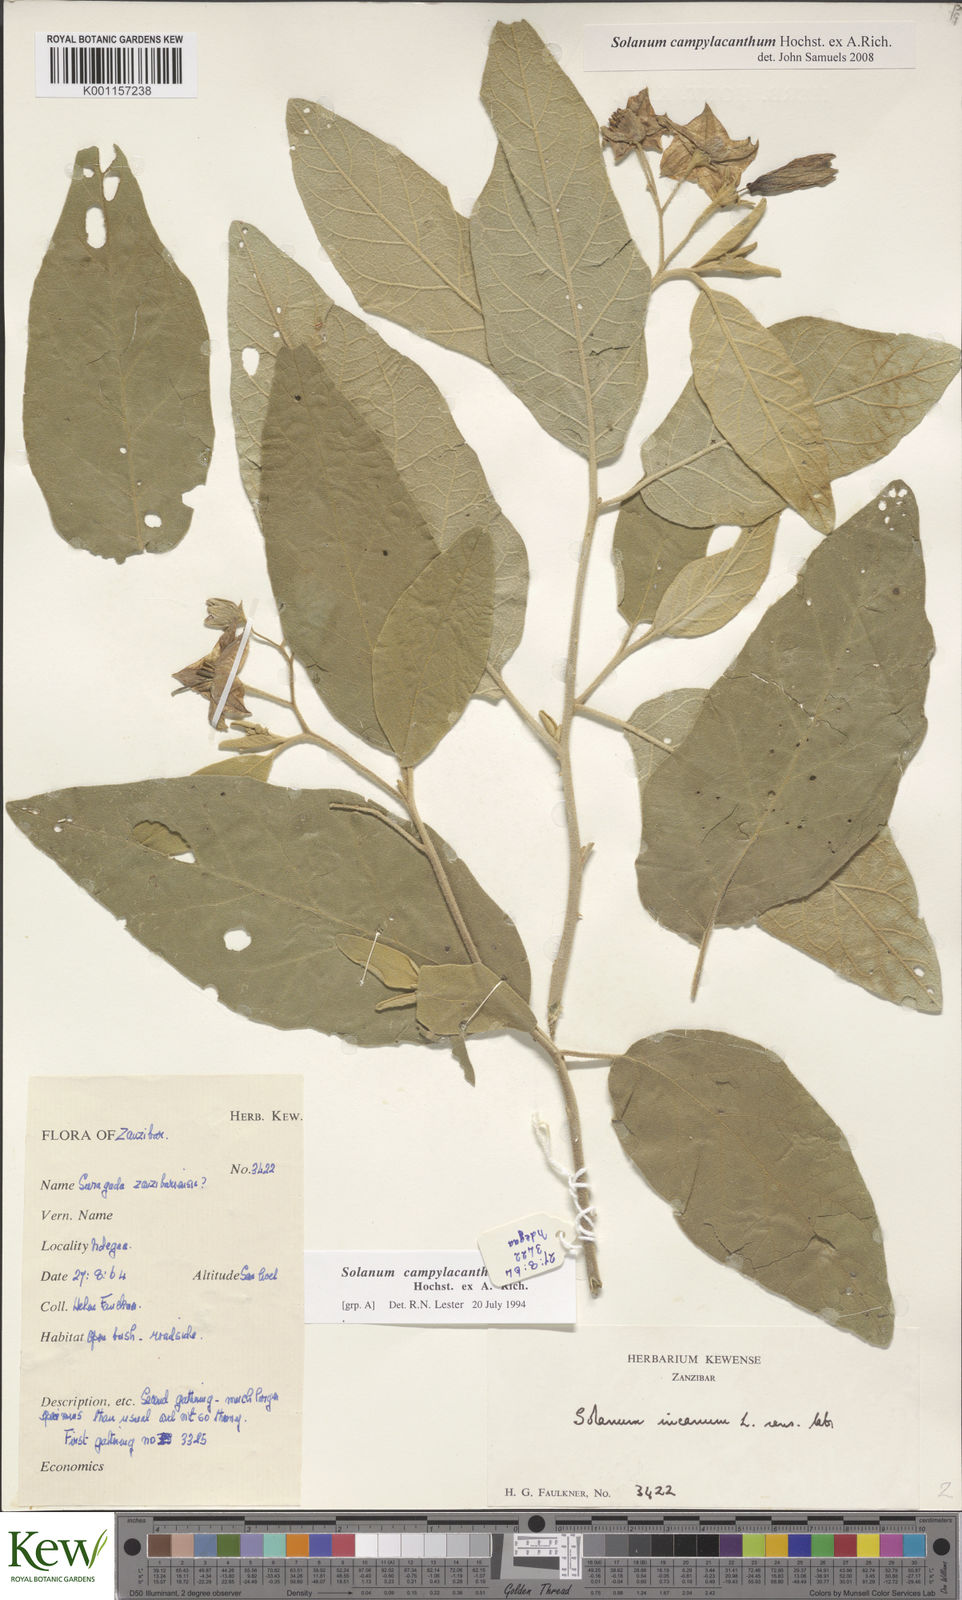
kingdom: Plantae
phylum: Tracheophyta
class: Magnoliopsida
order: Solanales
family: Solanaceae
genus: Solanum
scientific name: Solanum campylacanthum
